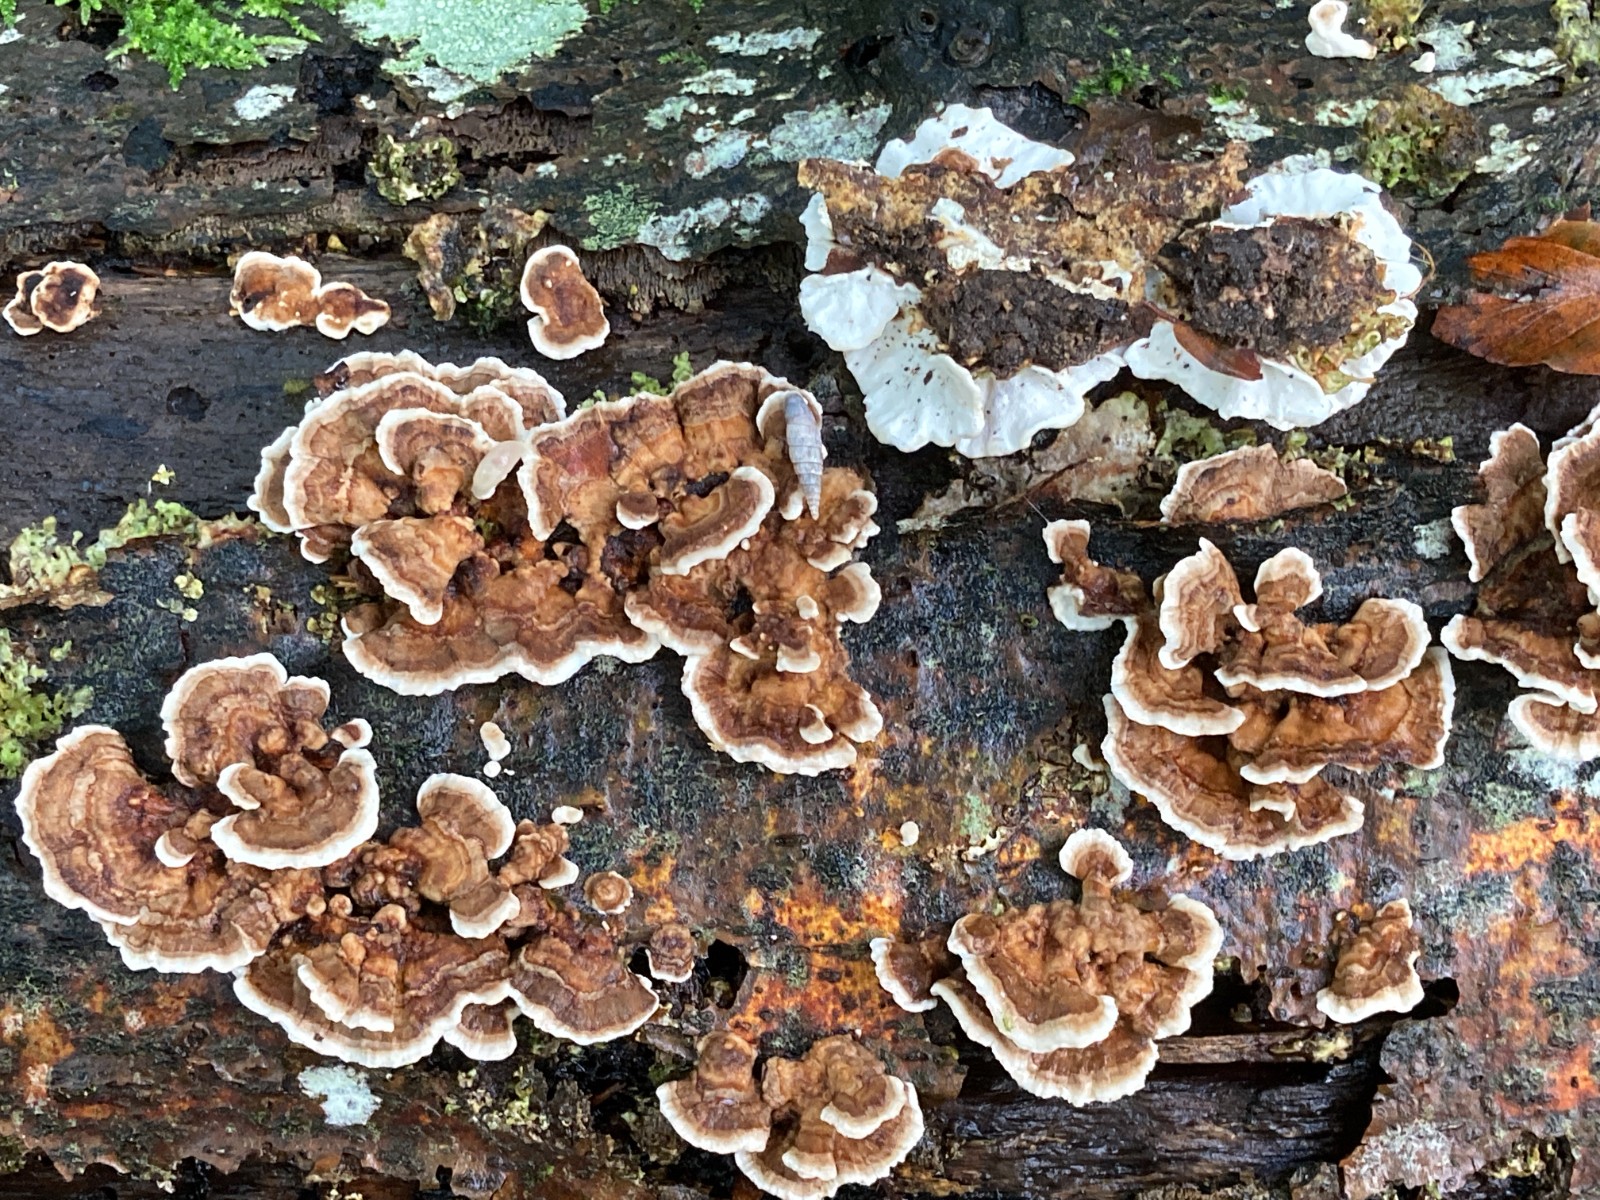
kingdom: Fungi
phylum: Basidiomycota
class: Agaricomycetes
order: Polyporales
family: Polyporaceae
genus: Trametes
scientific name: Trametes versicolor
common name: broget læderporesvamp
